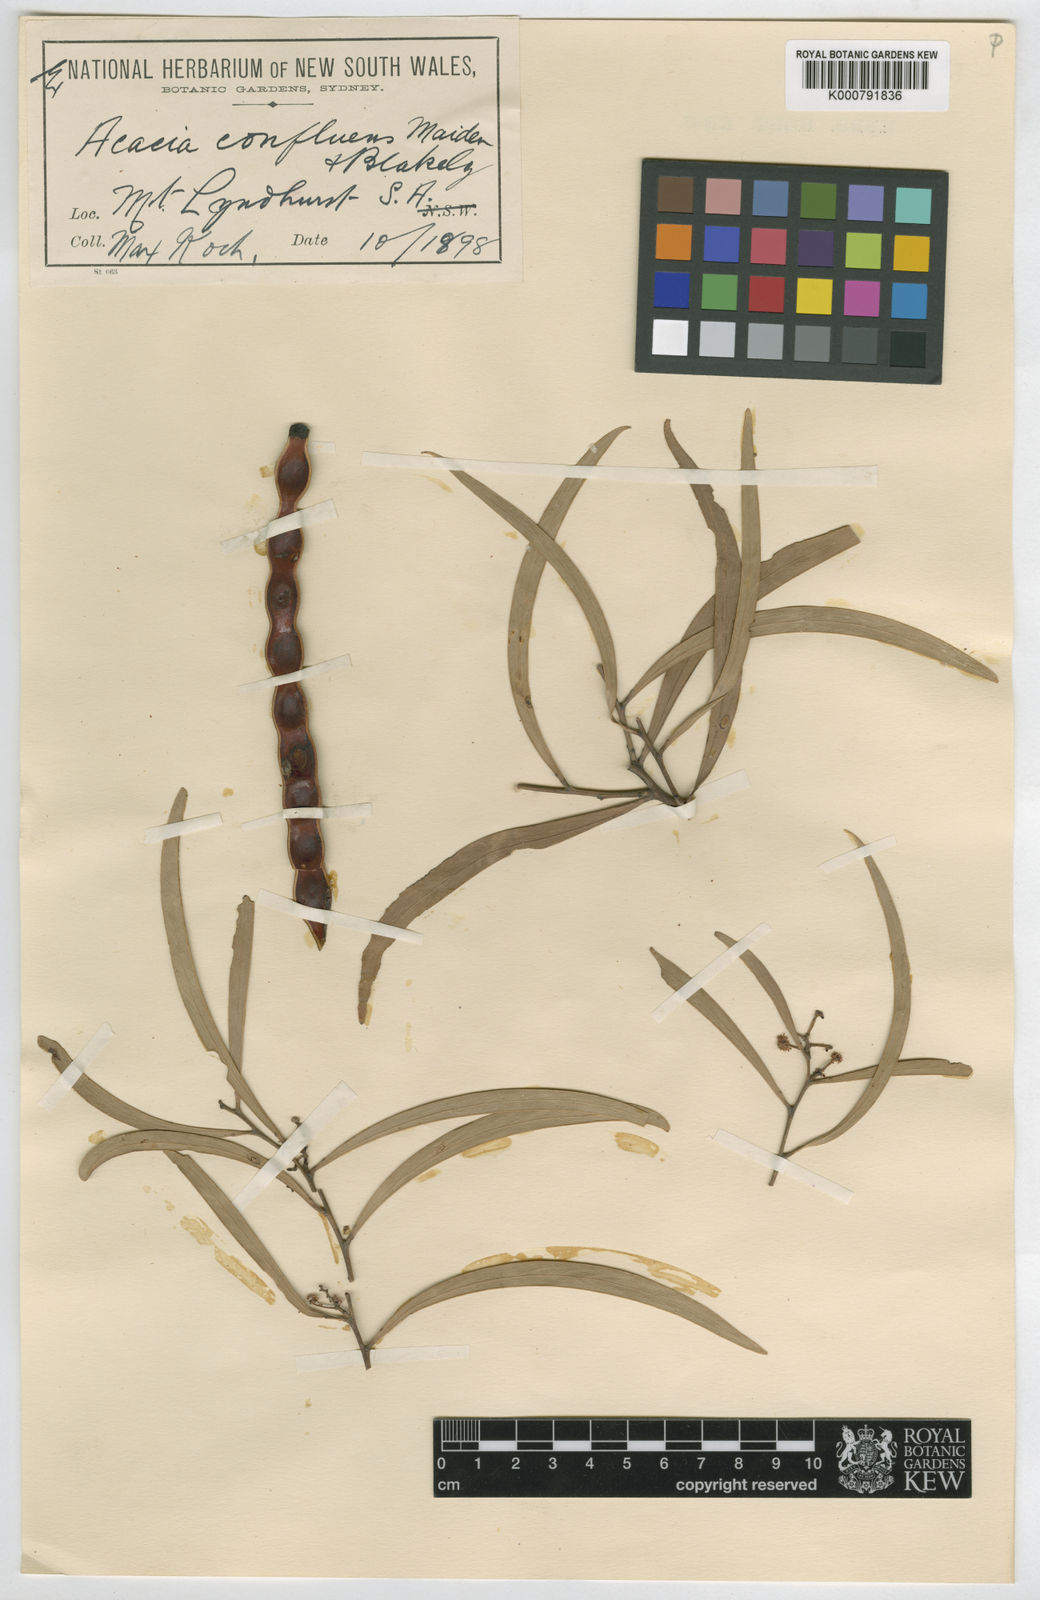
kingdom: Plantae
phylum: Tracheophyta
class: Magnoliopsida
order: Fabales
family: Fabaceae
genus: Acacia
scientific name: Acacia confluens
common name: Arkaroola wattle
